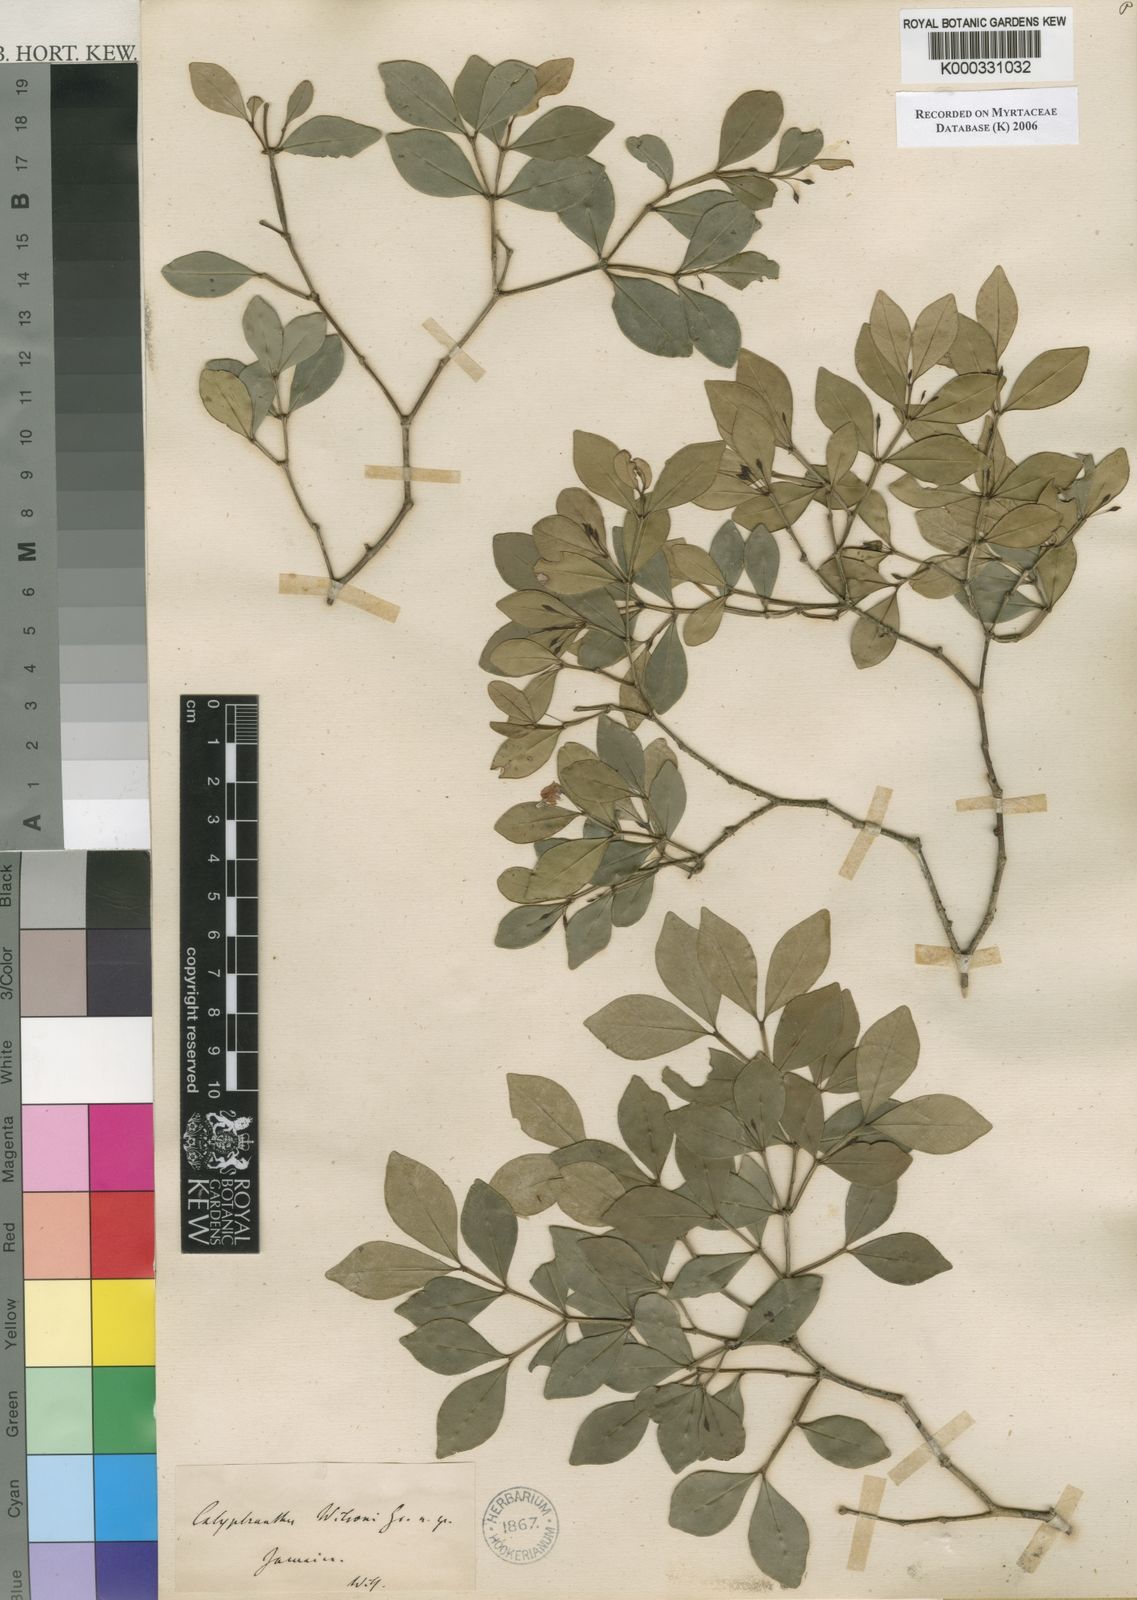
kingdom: Plantae
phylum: Tracheophyta
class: Magnoliopsida
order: Myrtales
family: Myrtaceae
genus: Myrcia
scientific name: Myrcia wilsonii
